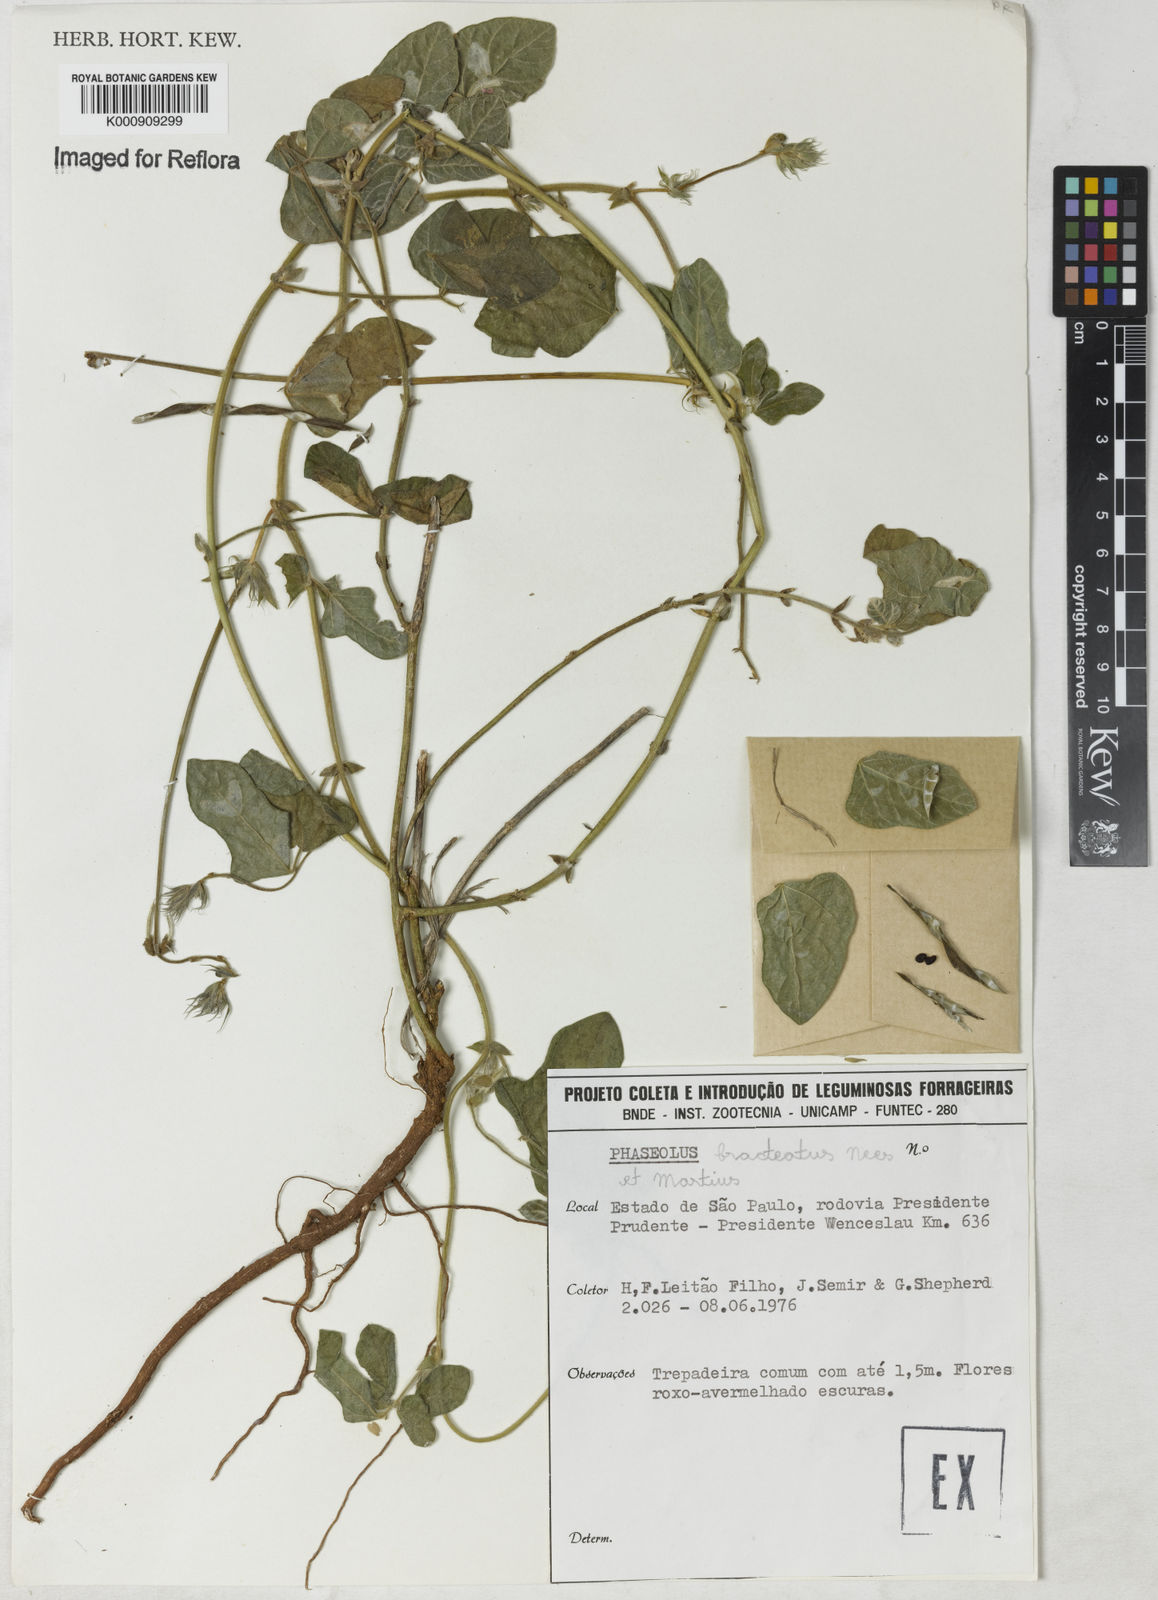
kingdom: Plantae
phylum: Tracheophyta
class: Magnoliopsida
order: Fabales
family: Fabaceae
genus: Macroptilium
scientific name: Macroptilium
